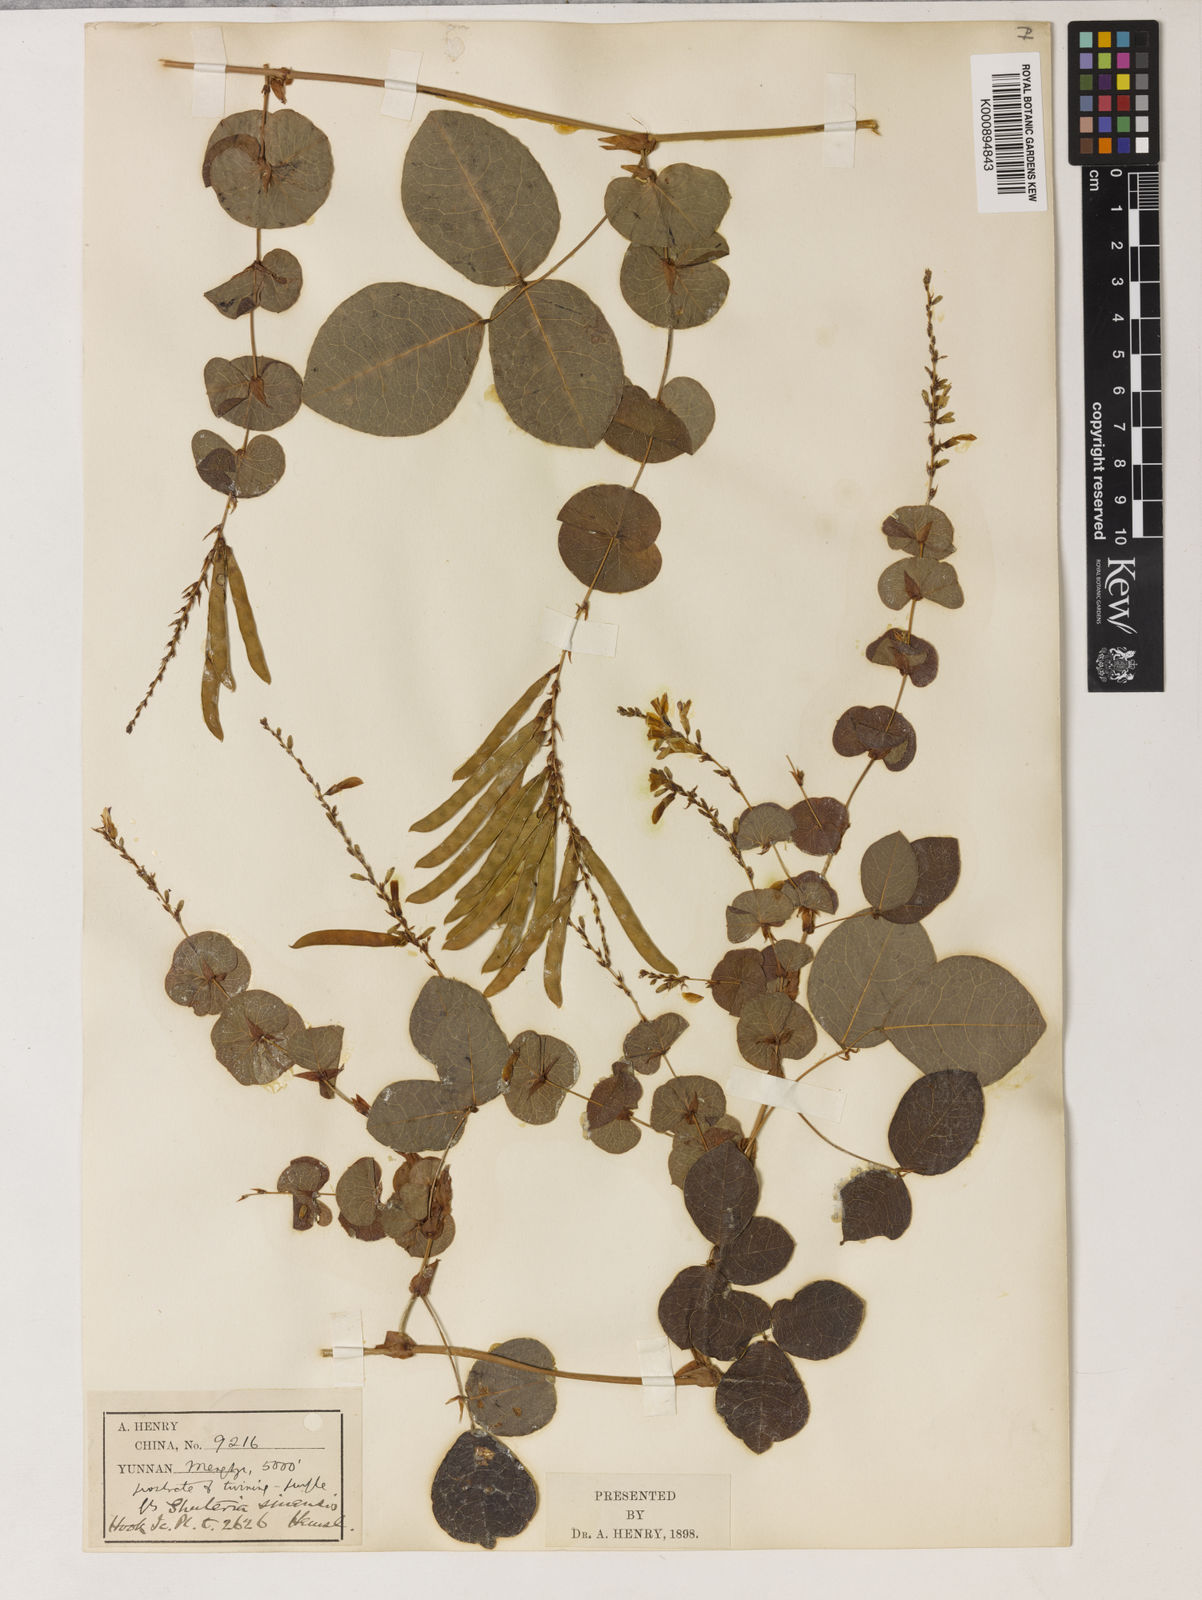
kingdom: Plantae
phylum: Tracheophyta
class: Magnoliopsida
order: Fabales
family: Fabaceae
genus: Shuteria
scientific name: Shuteria involucrata
